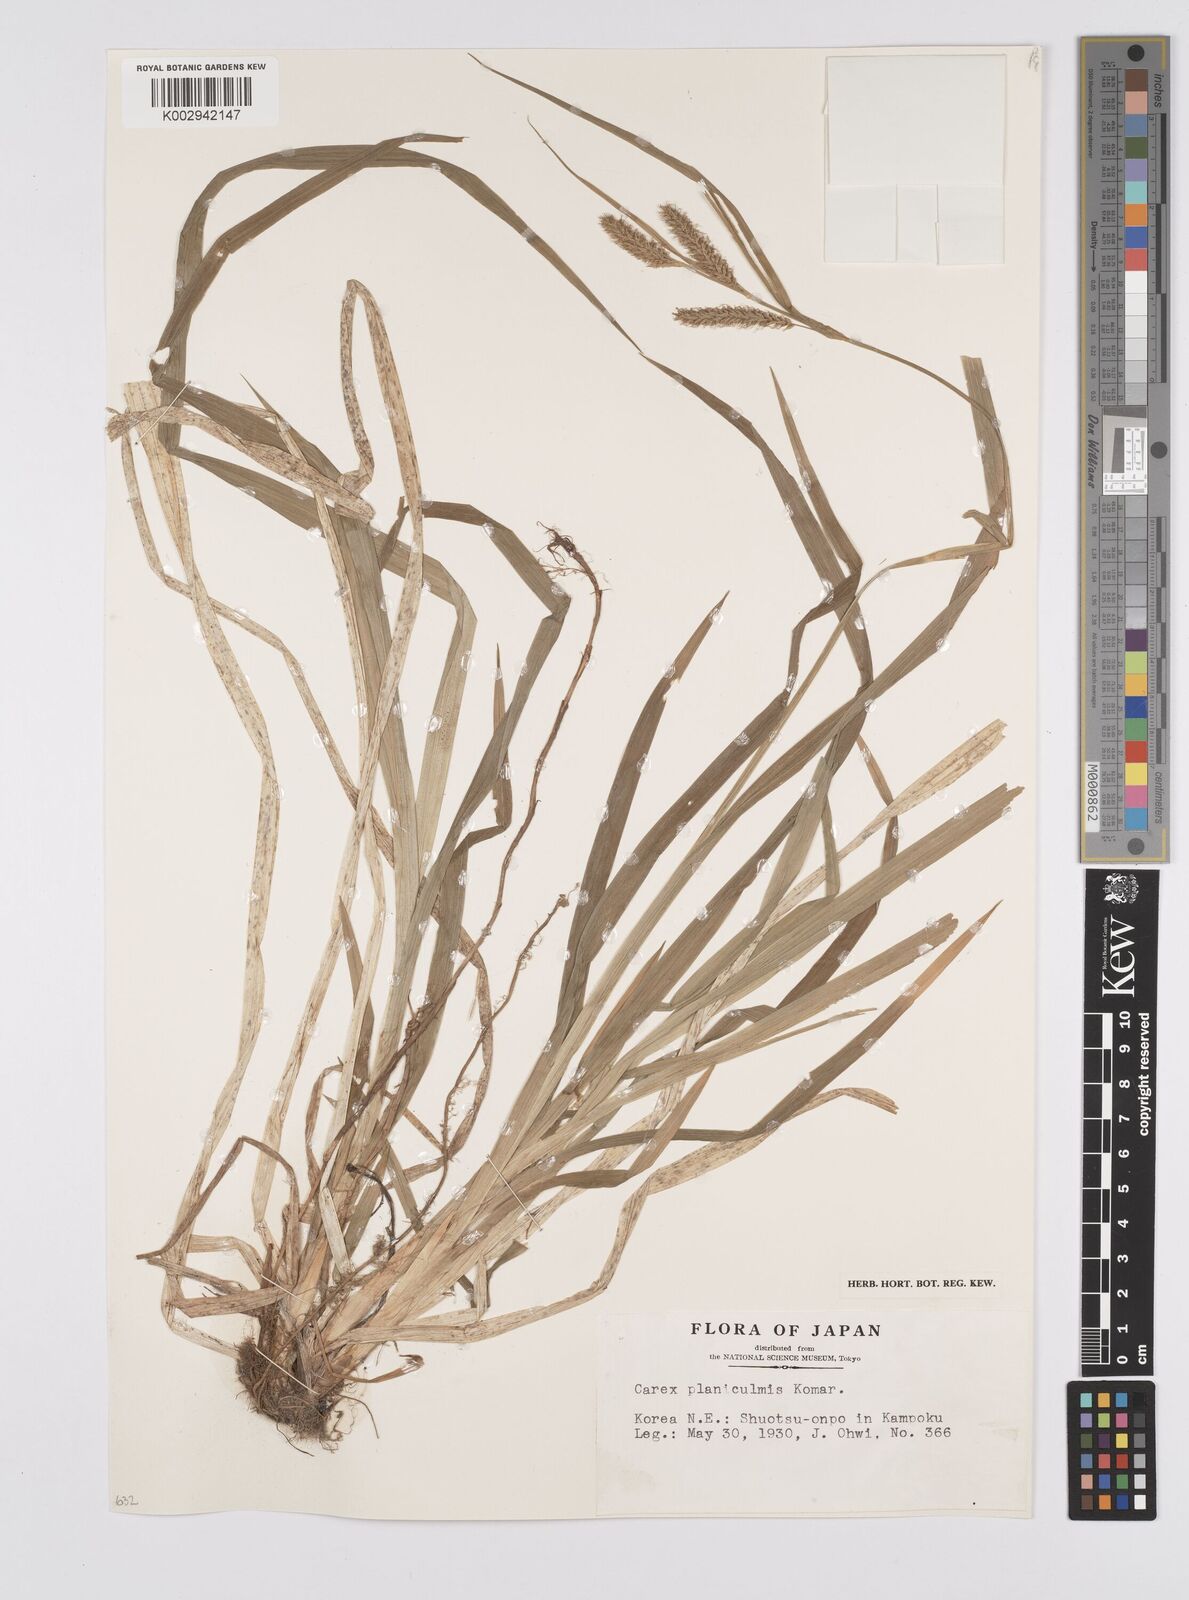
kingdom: Plantae
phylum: Tracheophyta
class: Liliopsida
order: Poales
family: Cyperaceae
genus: Carex
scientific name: Carex planiculmis
